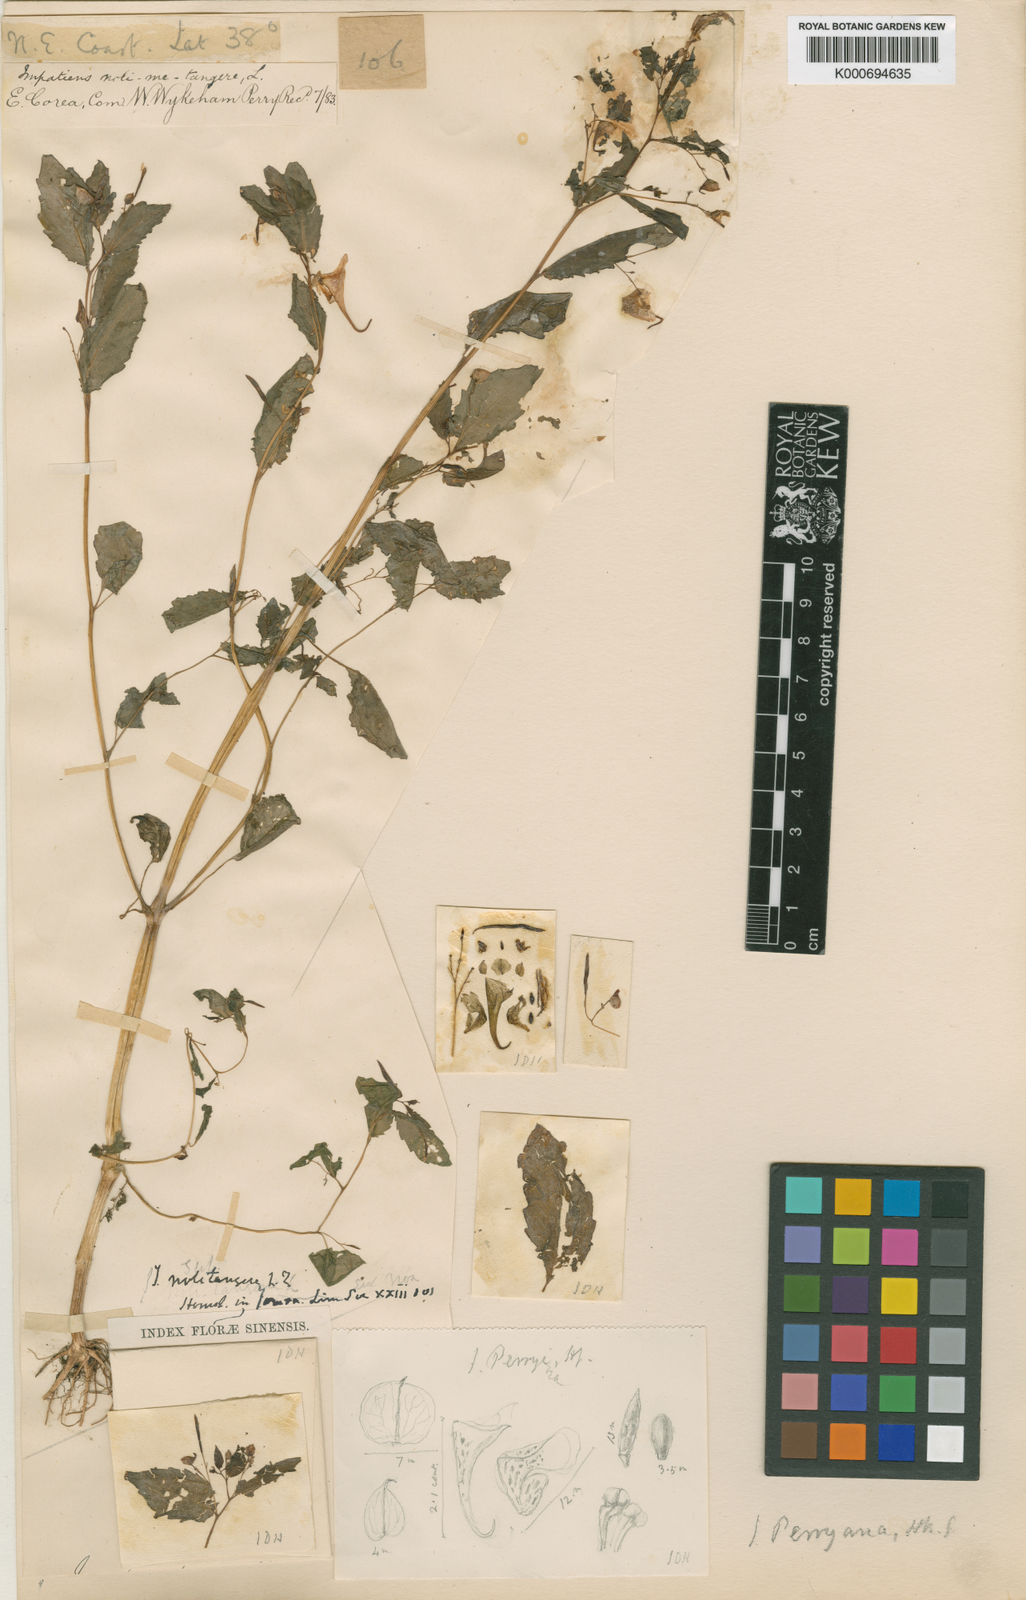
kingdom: Plantae
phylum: Tracheophyta
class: Magnoliopsida
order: Ericales
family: Balsaminaceae
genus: Impatiens
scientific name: Impatiens
